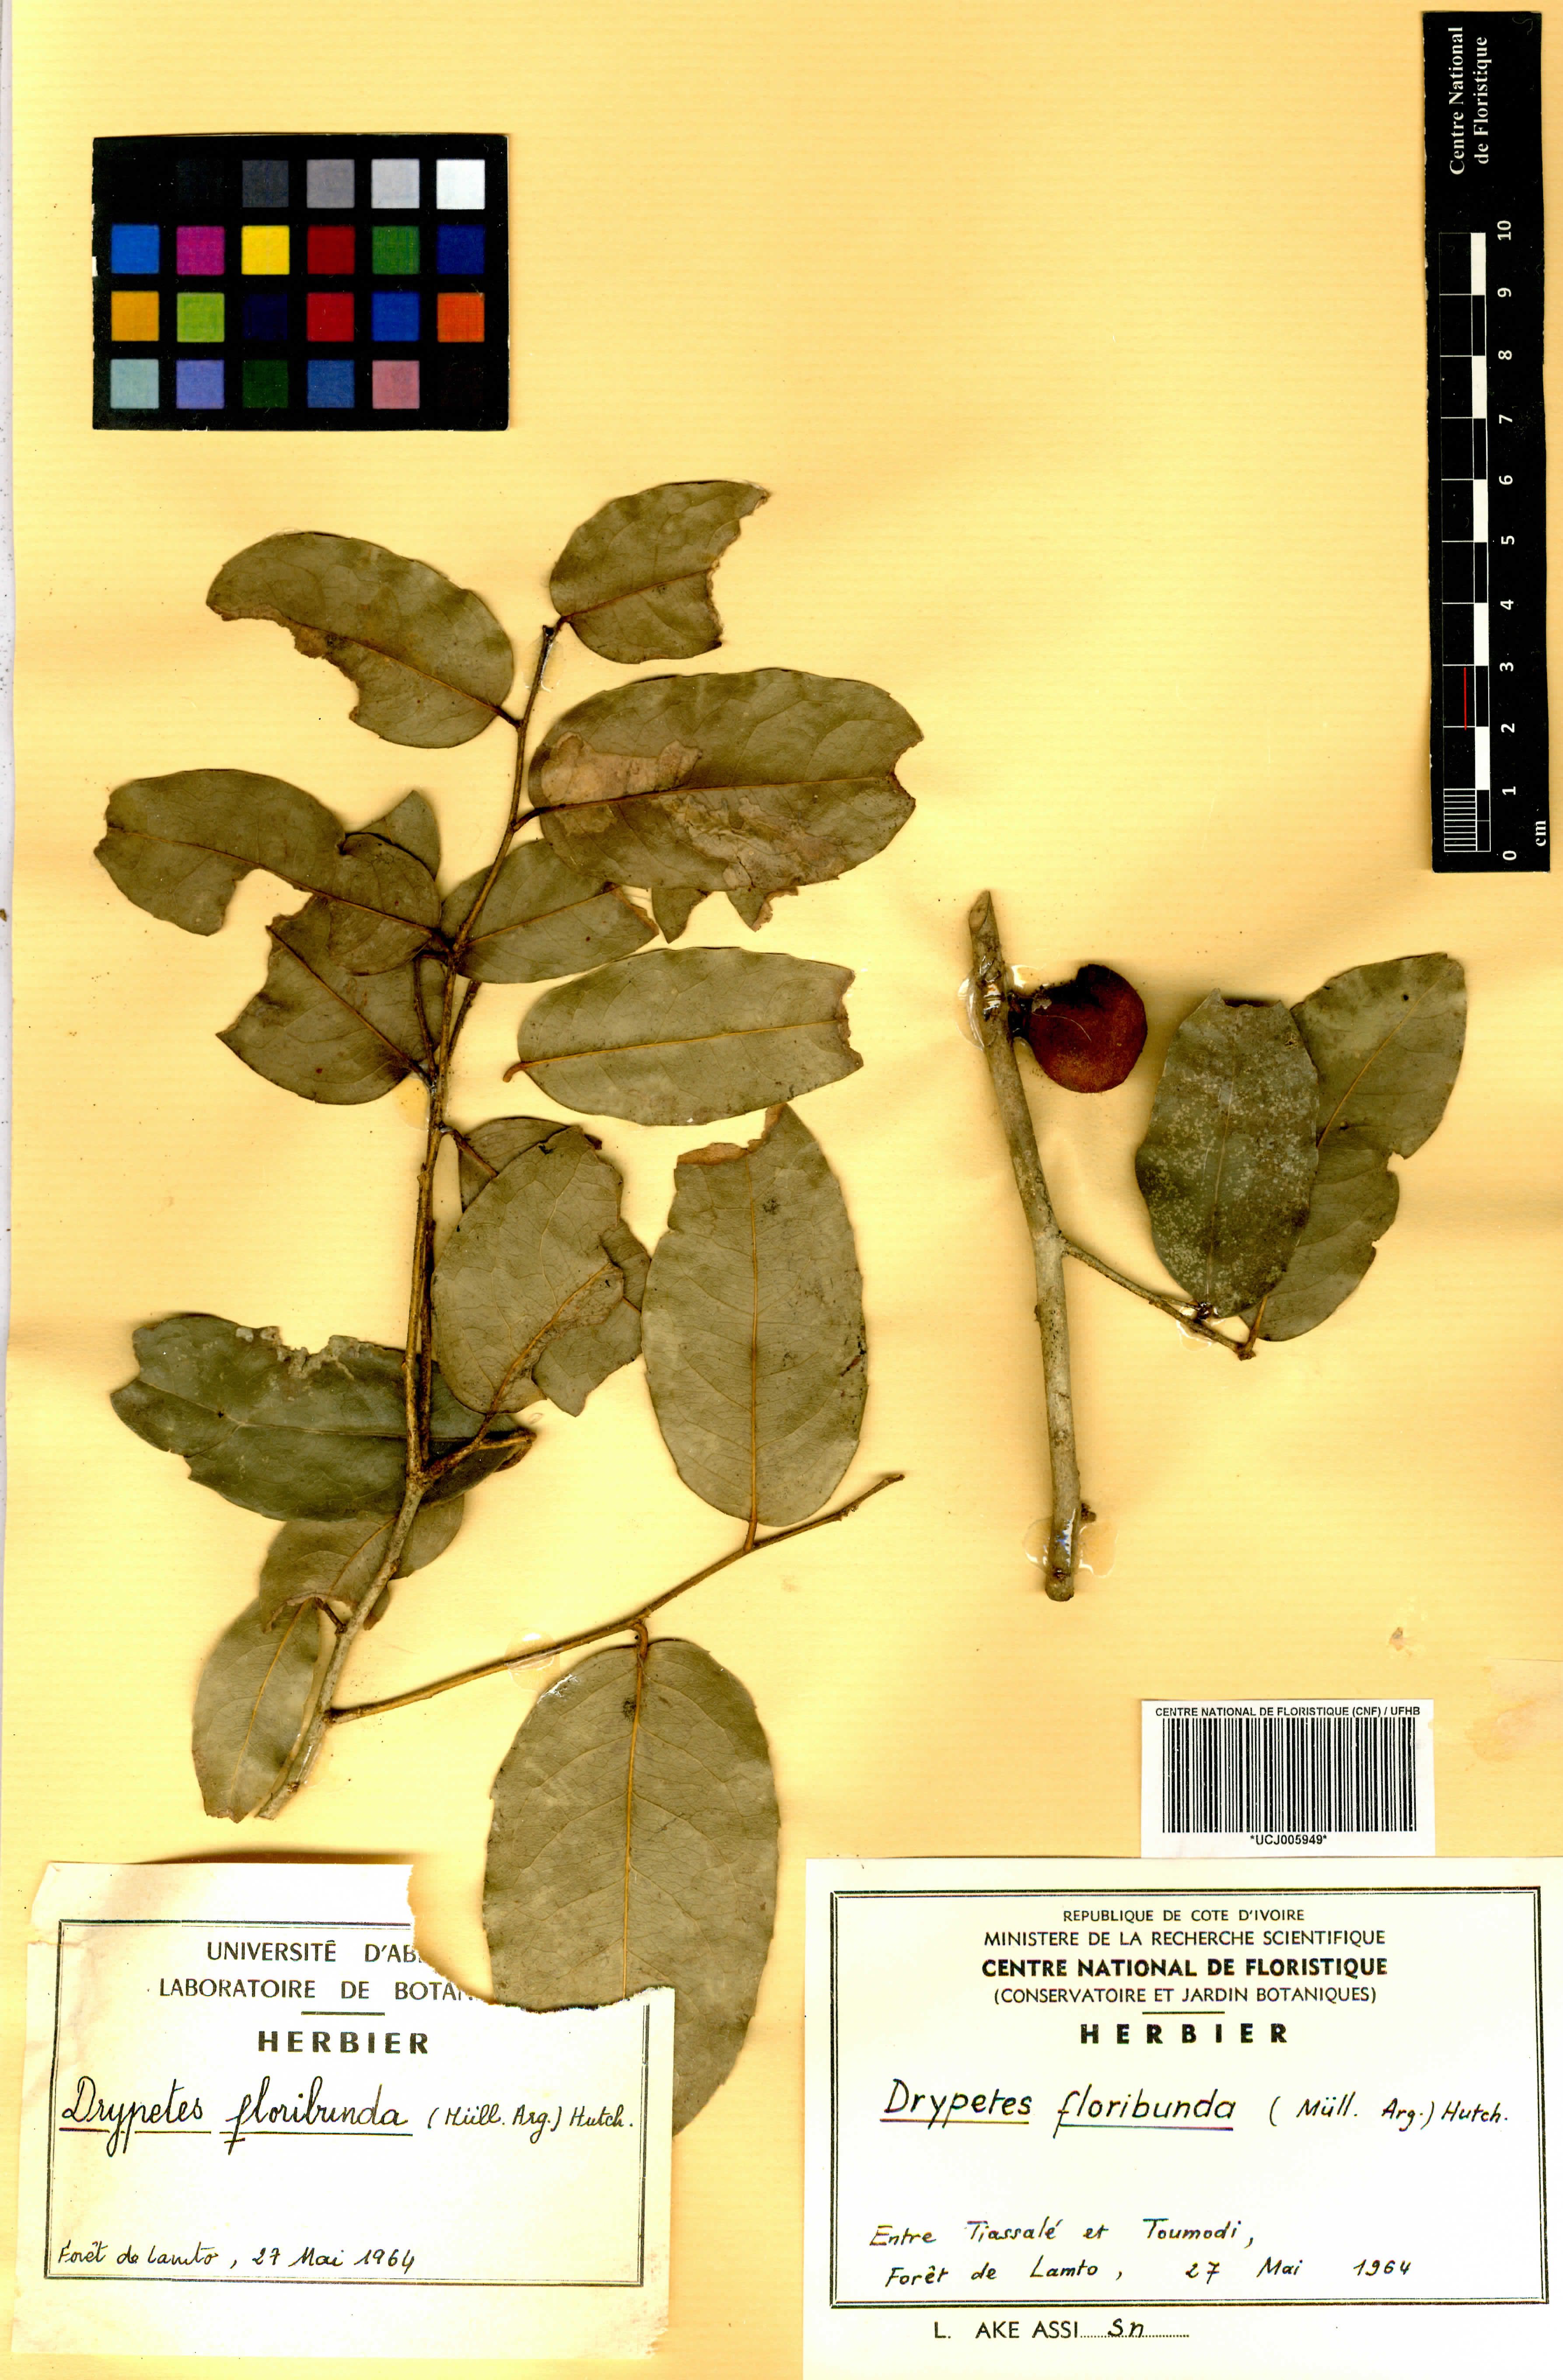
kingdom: Plantae
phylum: Tracheophyta
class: Magnoliopsida
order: Malpighiales
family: Putranjivaceae
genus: Drypetes
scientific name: Drypetes floribunda
